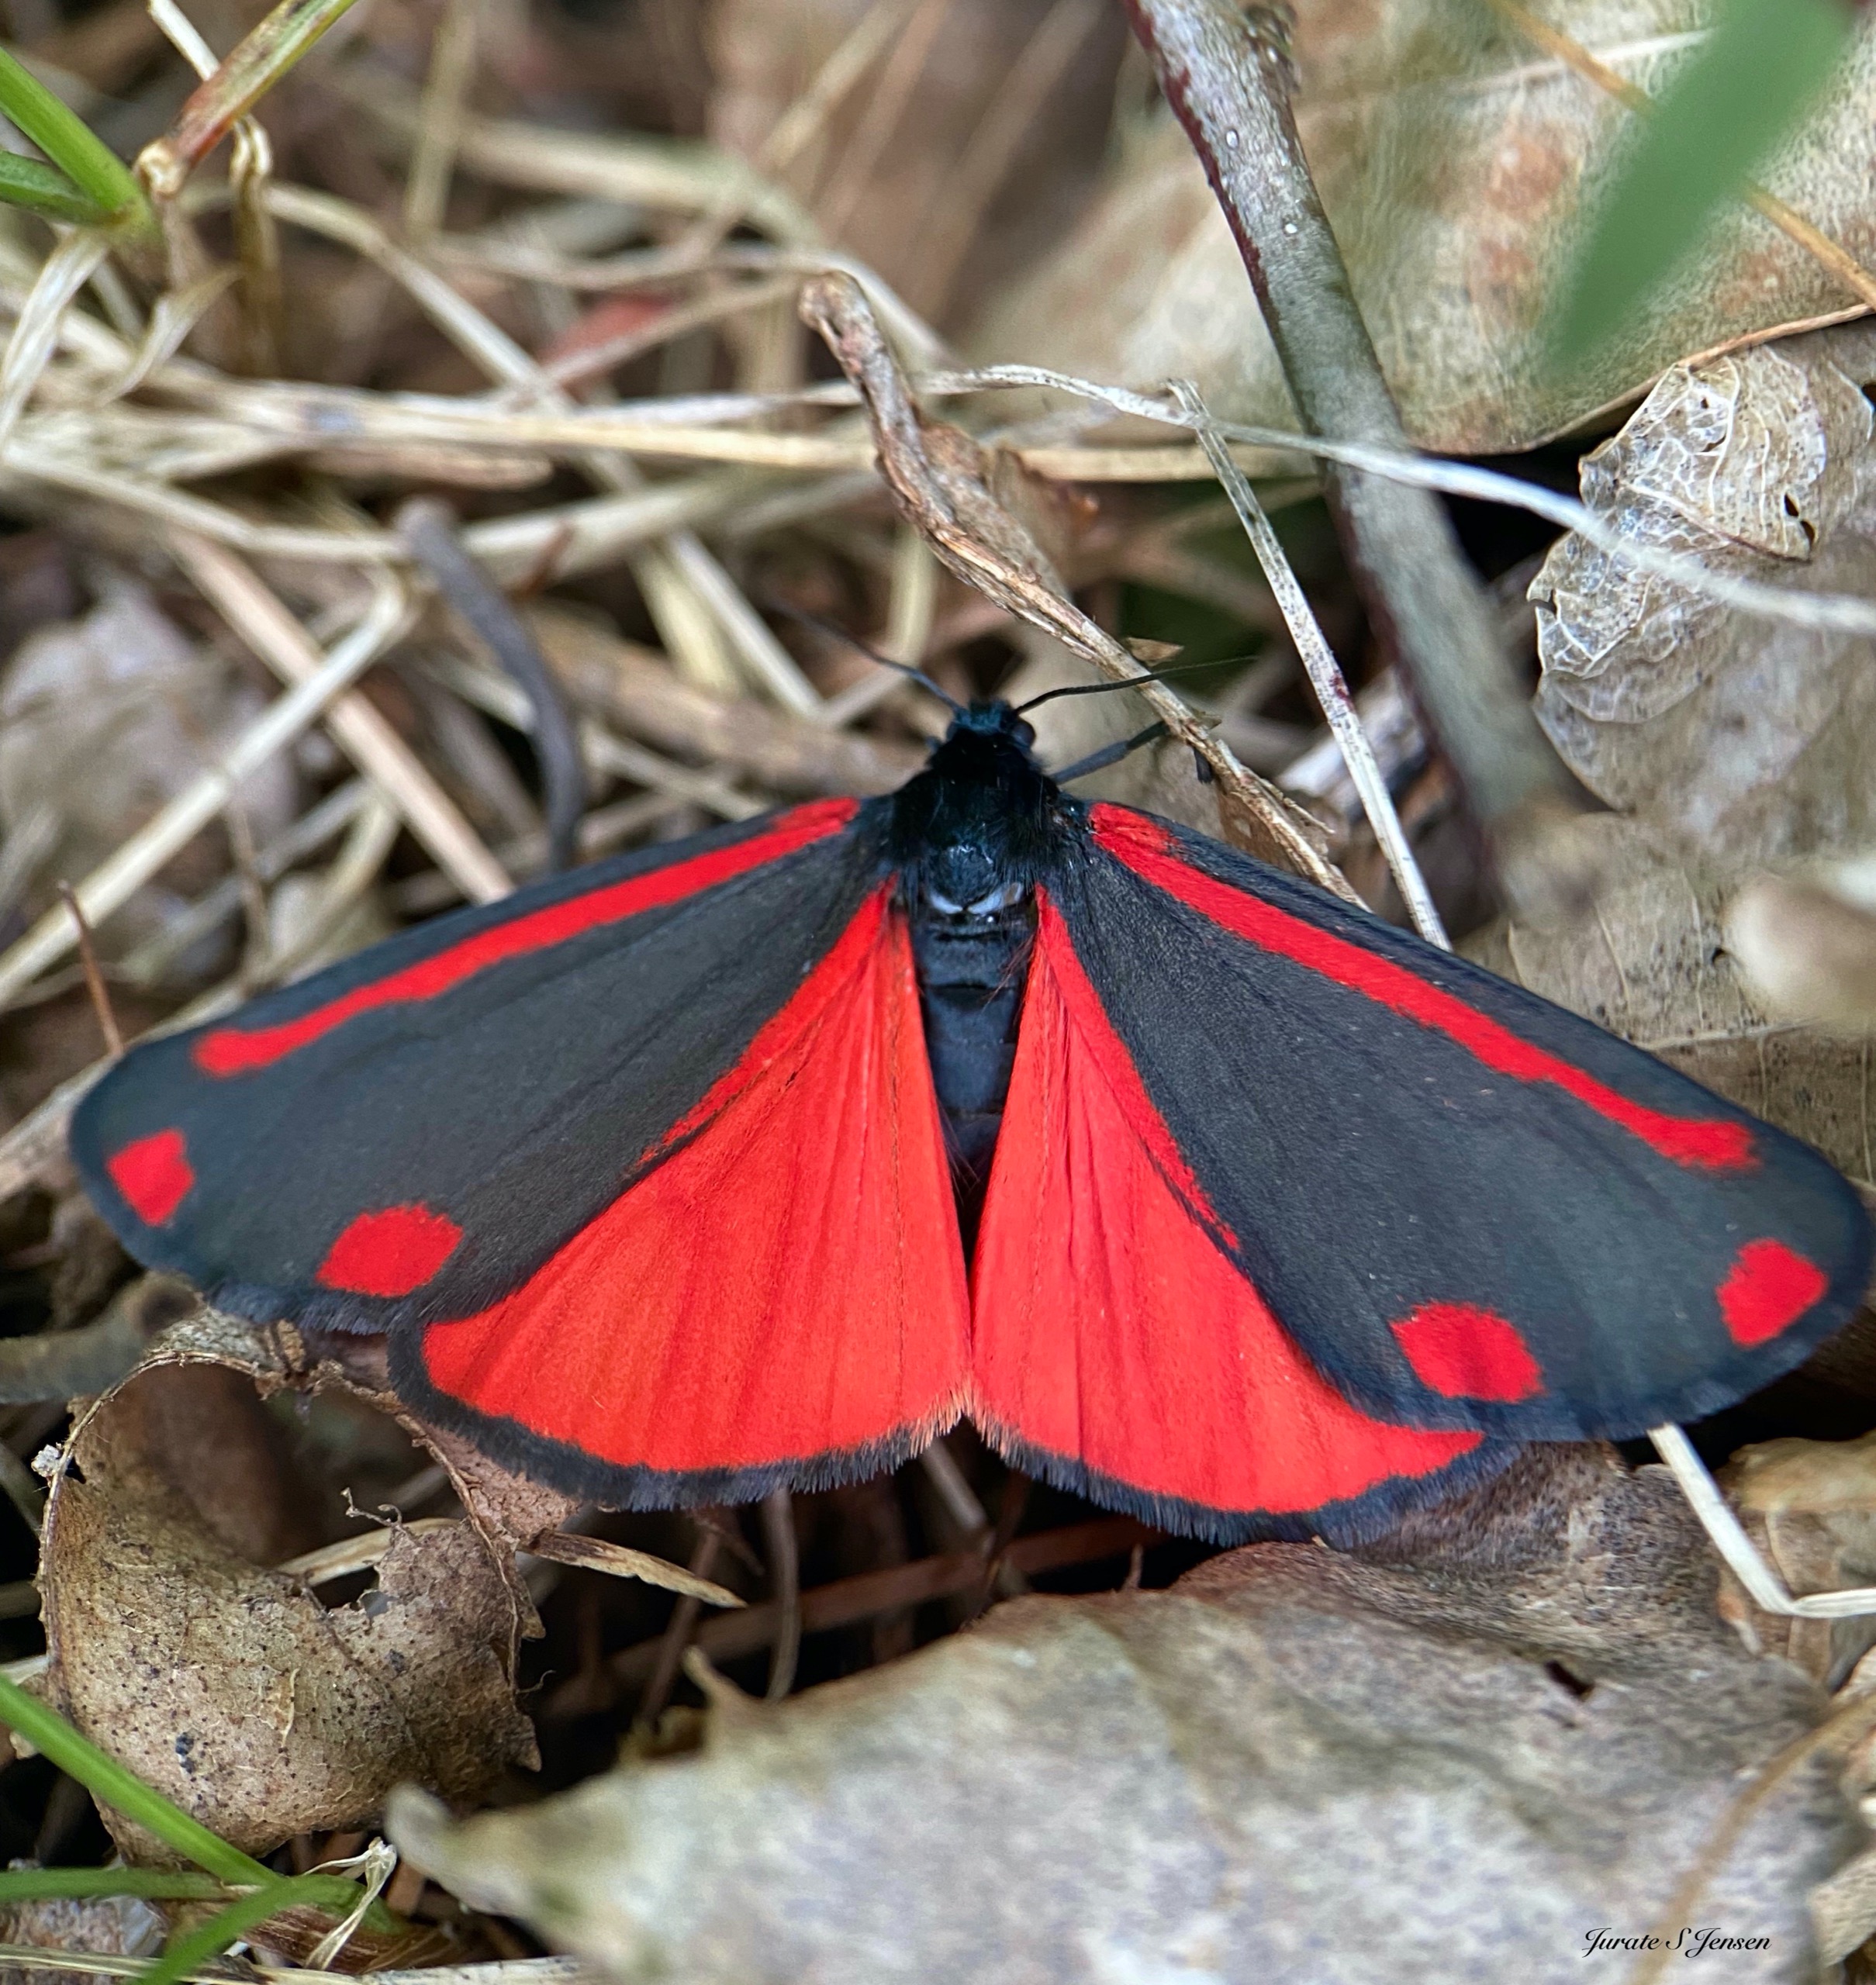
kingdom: Animalia
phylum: Arthropoda
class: Insecta
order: Lepidoptera
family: Erebidae
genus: Tyria
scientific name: Tyria jacobaeae
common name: Blodplet
